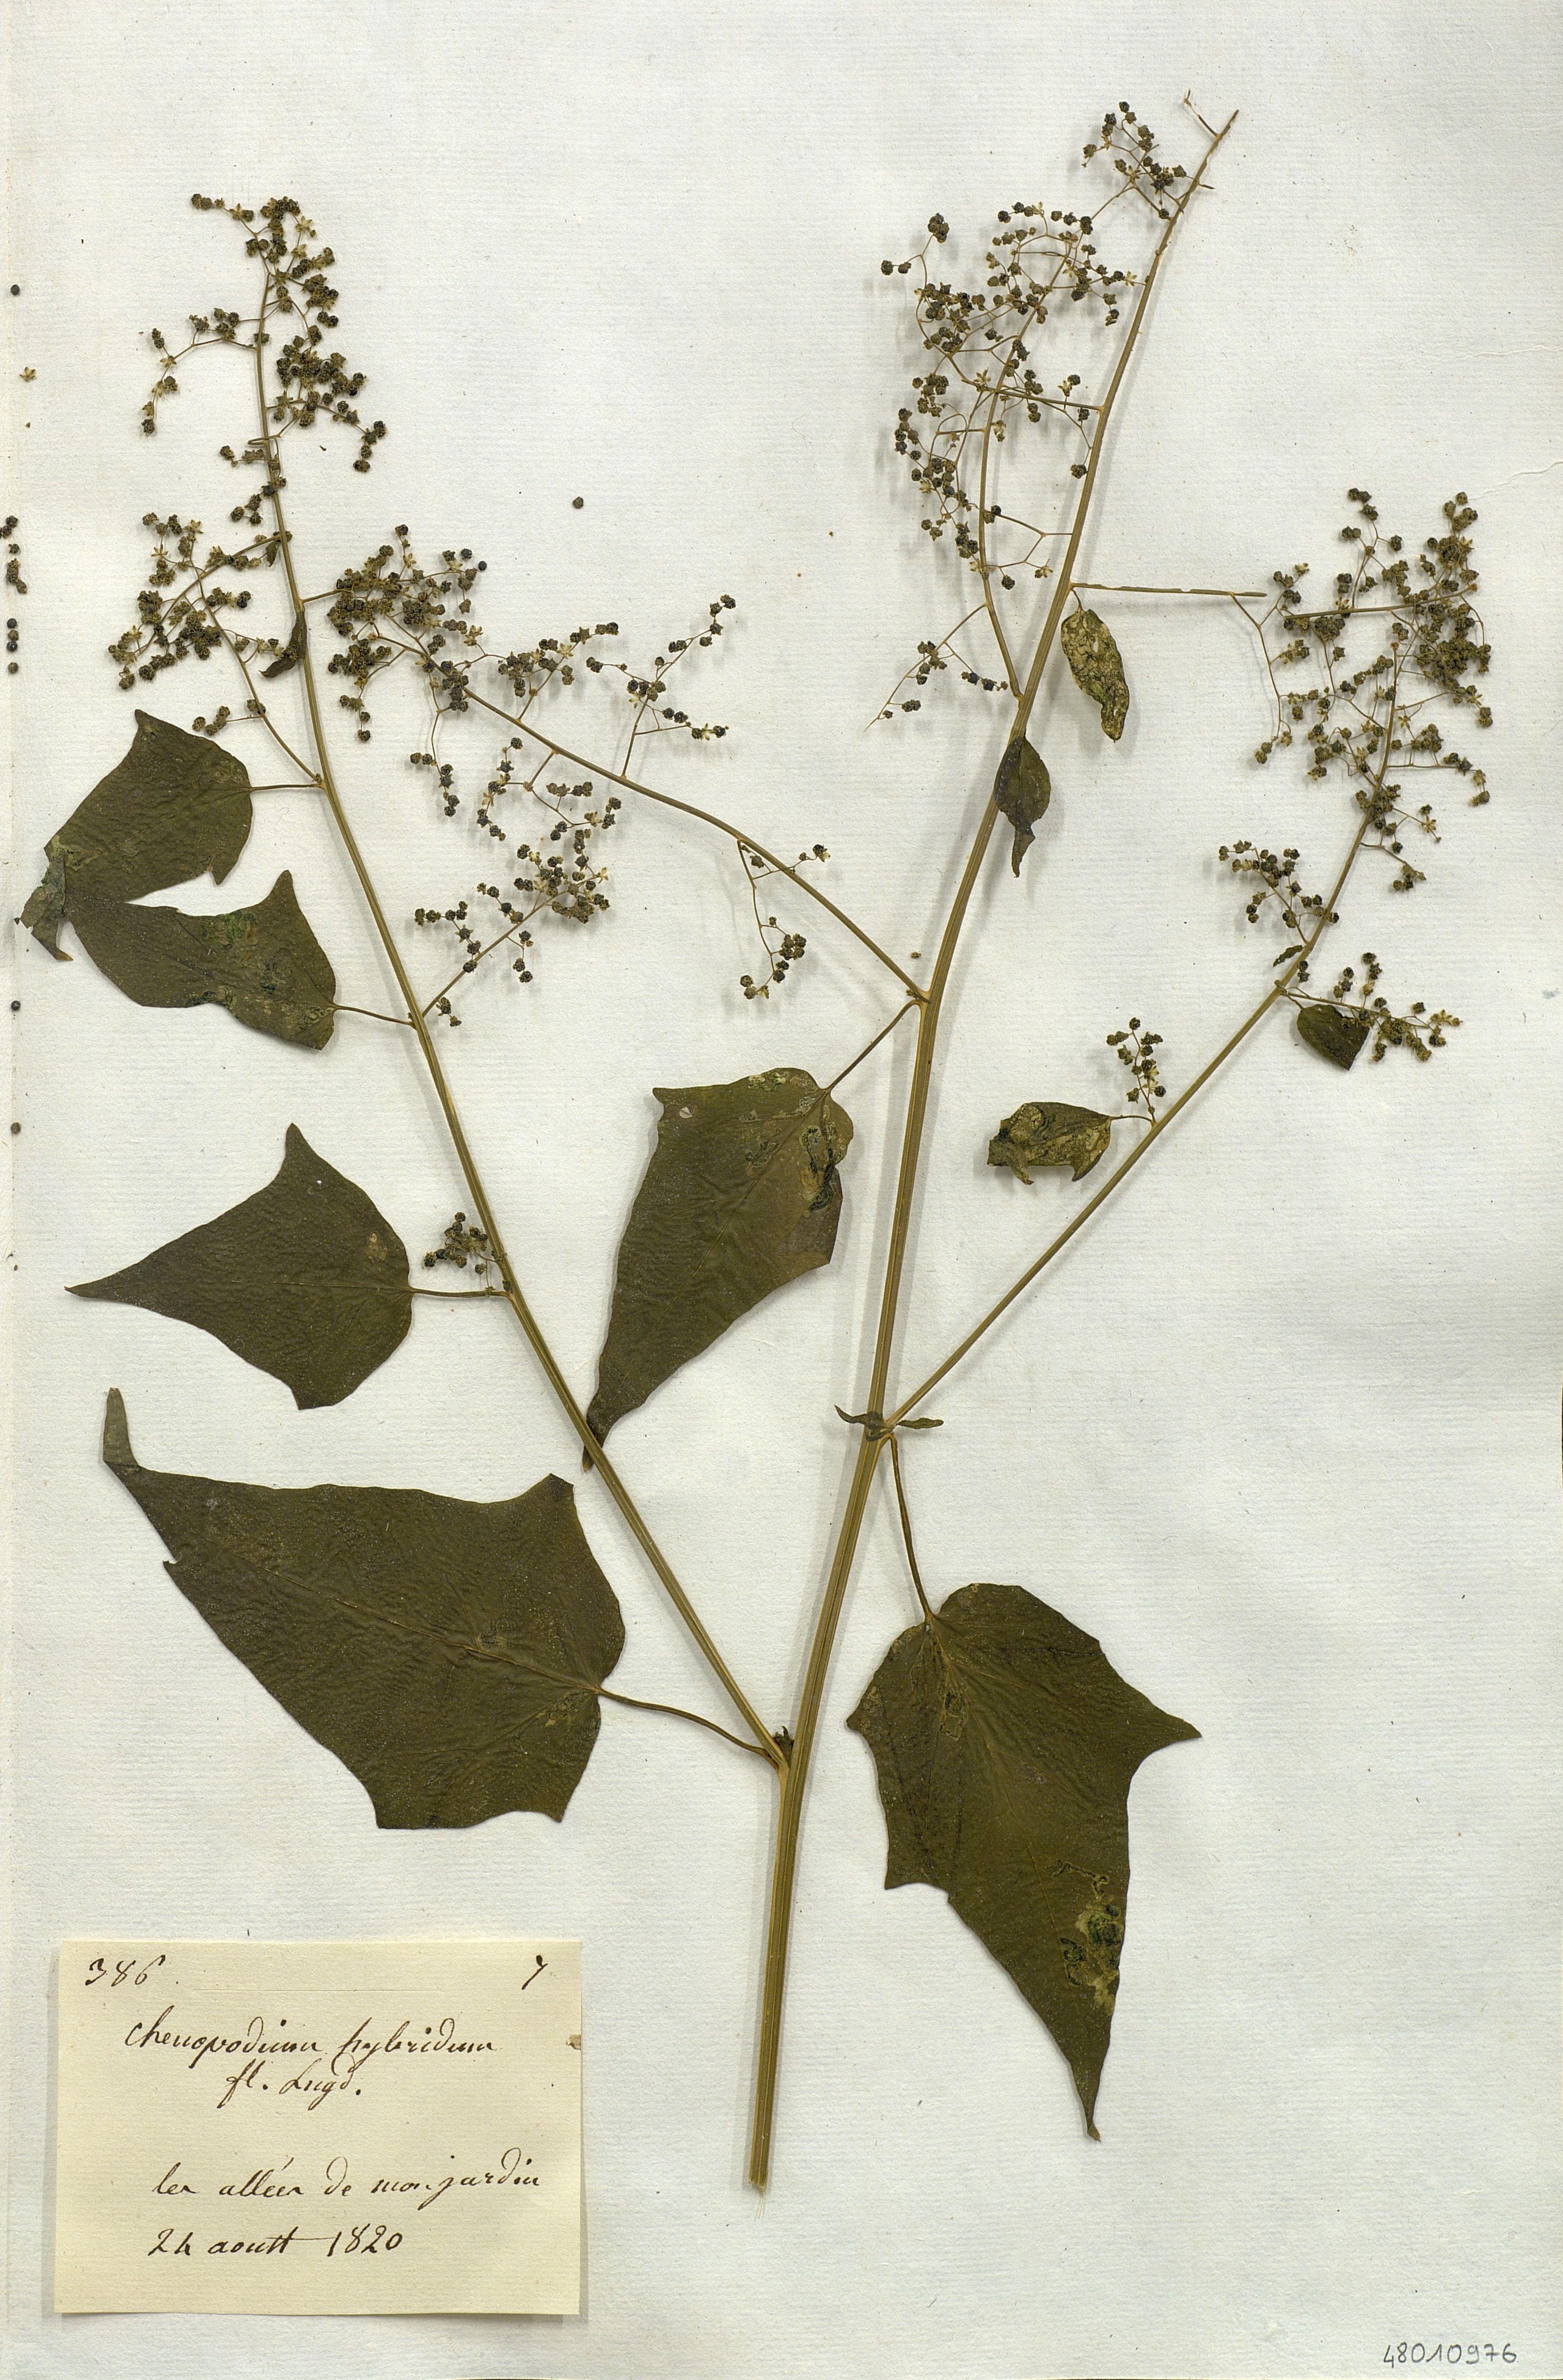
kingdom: Plantae
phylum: Tracheophyta
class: Magnoliopsida
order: Caryophyllales
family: Amaranthaceae
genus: Chenopodiastrum
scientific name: Chenopodiastrum hybridum
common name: Mapleleaf goosefoot
